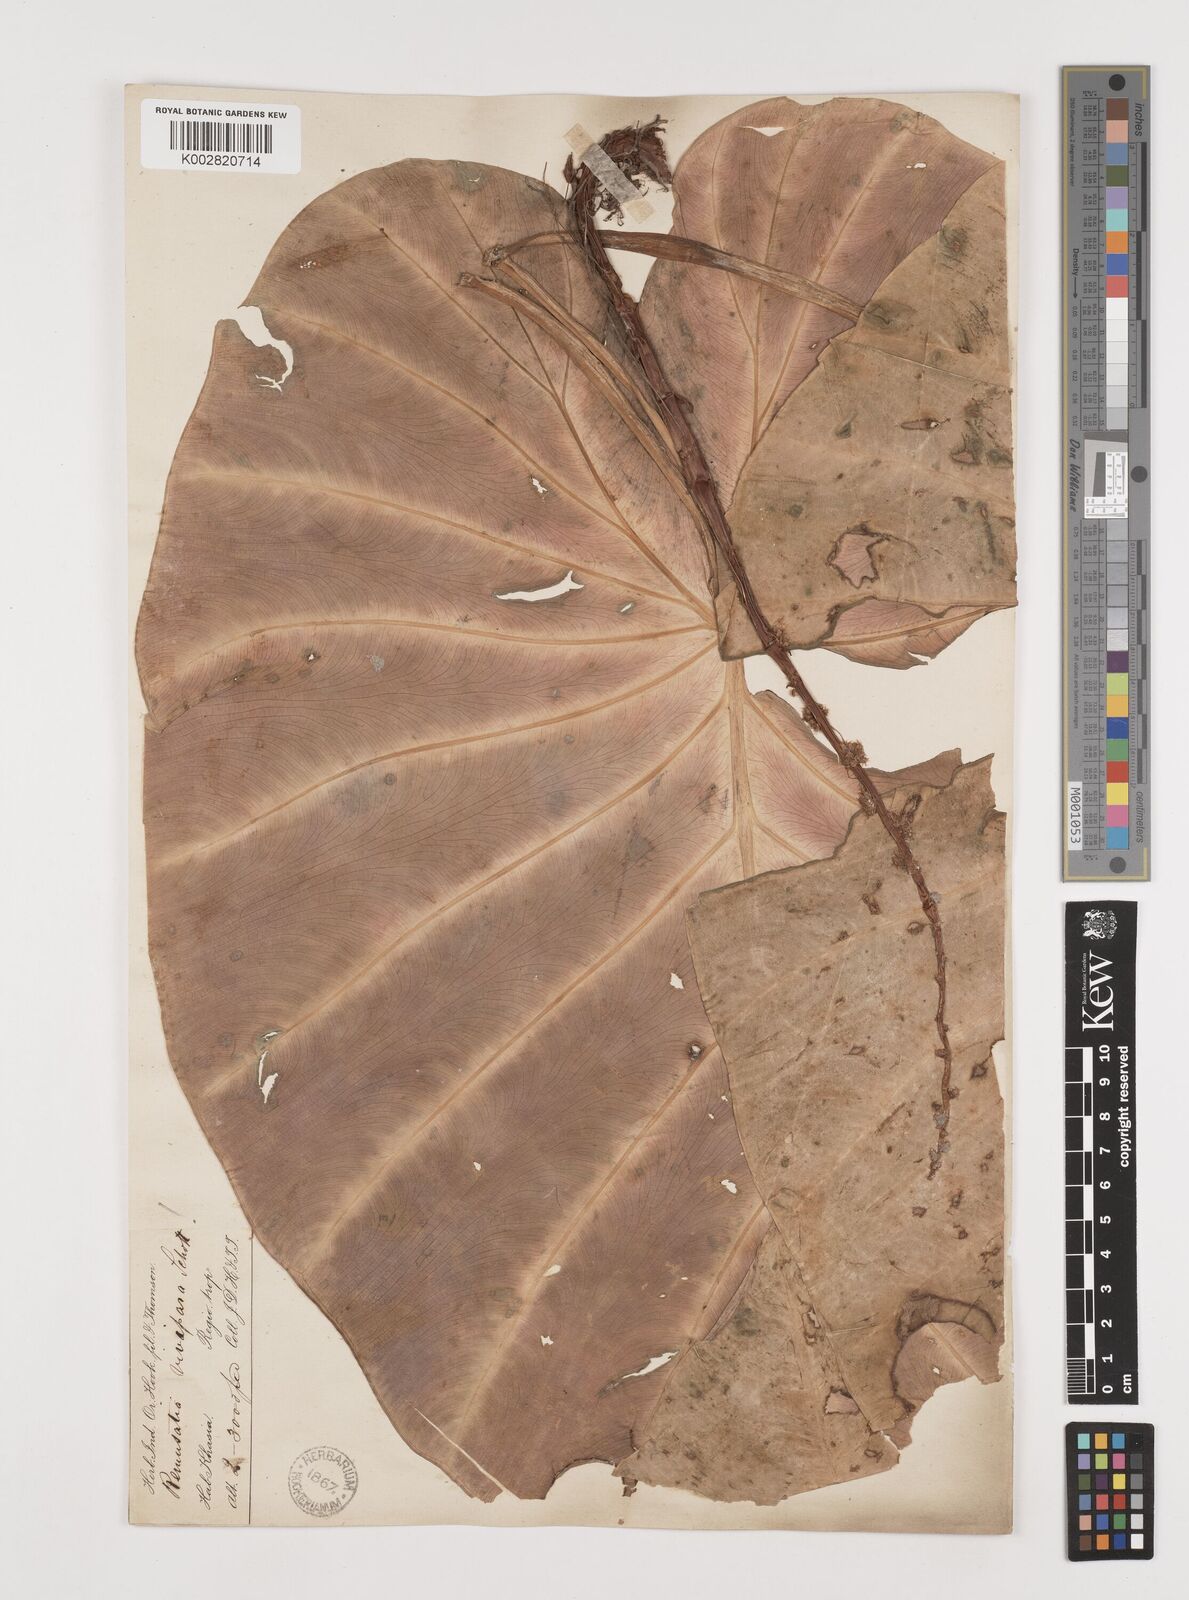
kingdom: Plantae
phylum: Tracheophyta
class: Liliopsida
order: Alismatales
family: Araceae
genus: Remusatia
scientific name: Remusatia vivipara
